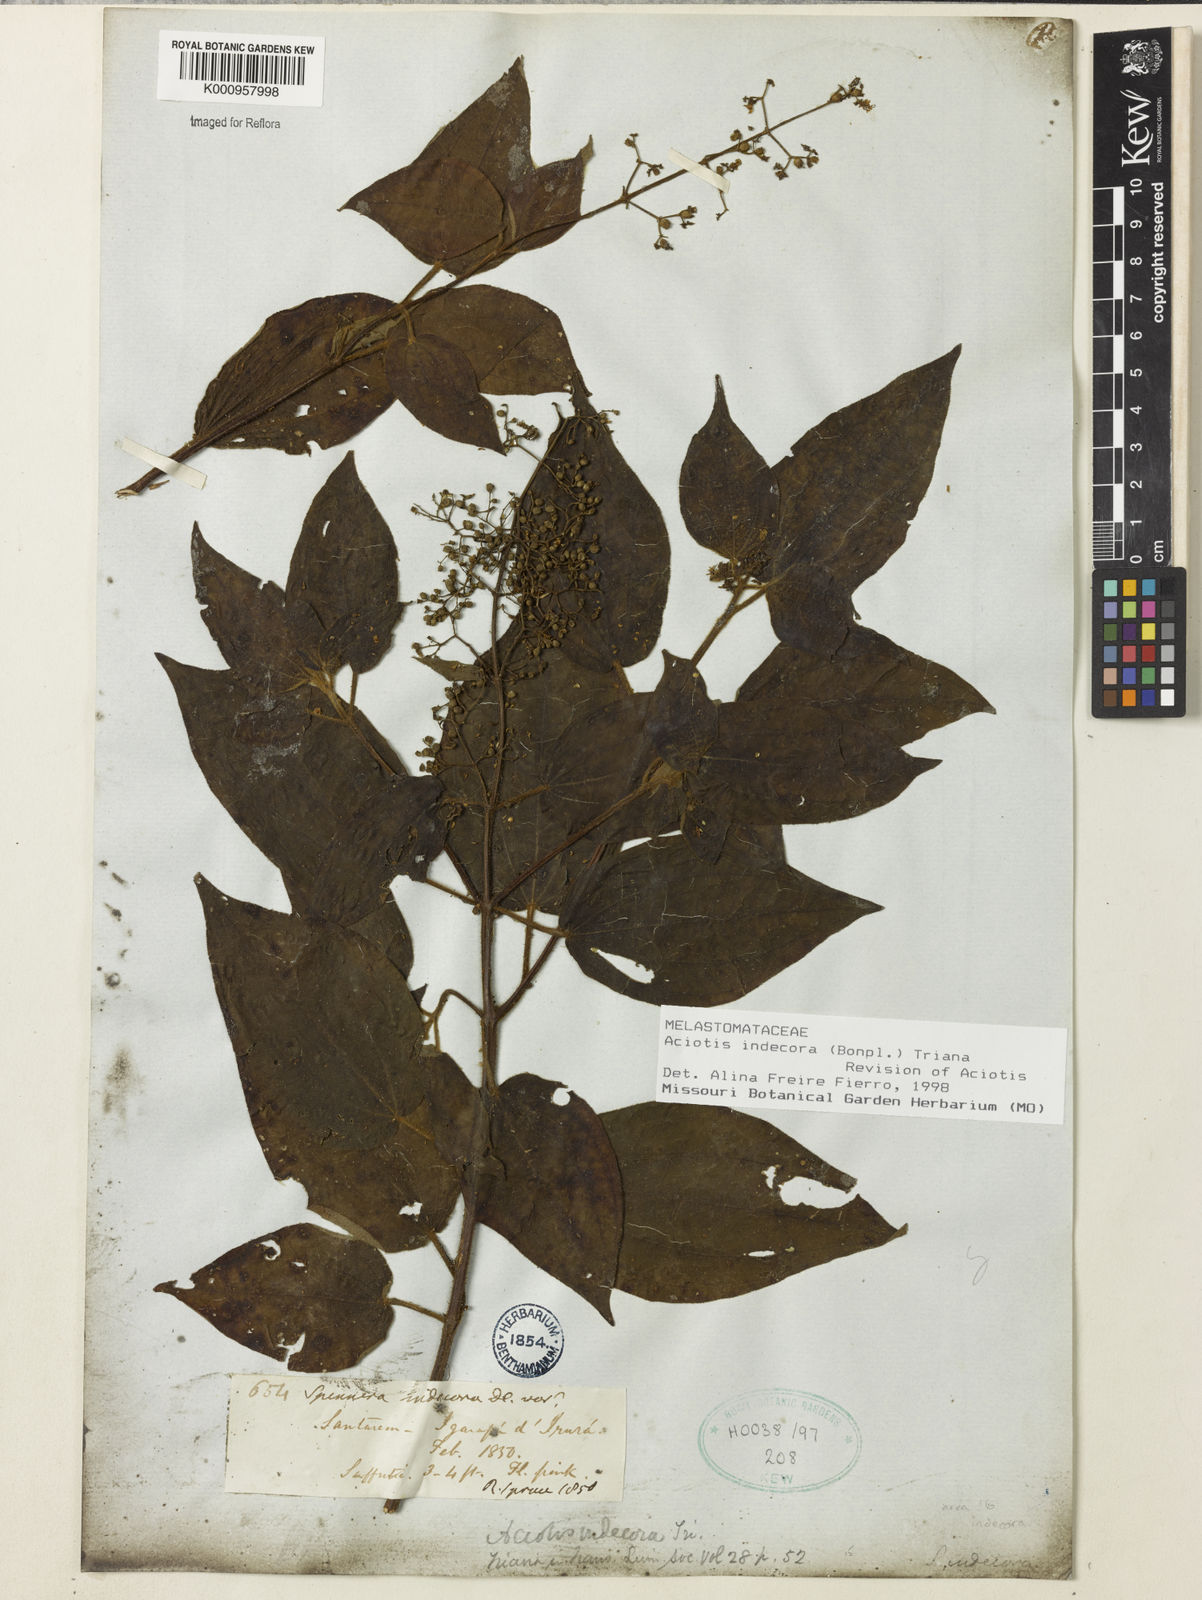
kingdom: Plantae
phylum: Tracheophyta
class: Magnoliopsida
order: Myrtales
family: Melastomataceae
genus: Aciotis
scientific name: Aciotis indecora
